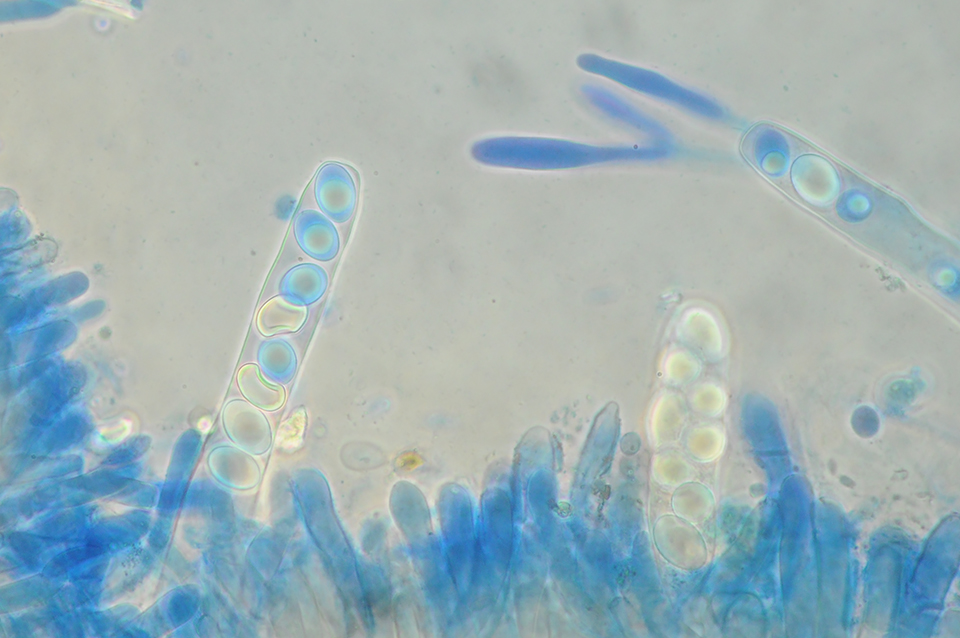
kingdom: Fungi
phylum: Ascomycota
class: Pezizomycetes
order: Pezizales
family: Pyronemataceae
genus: Octospora
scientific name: Octospora rustica
